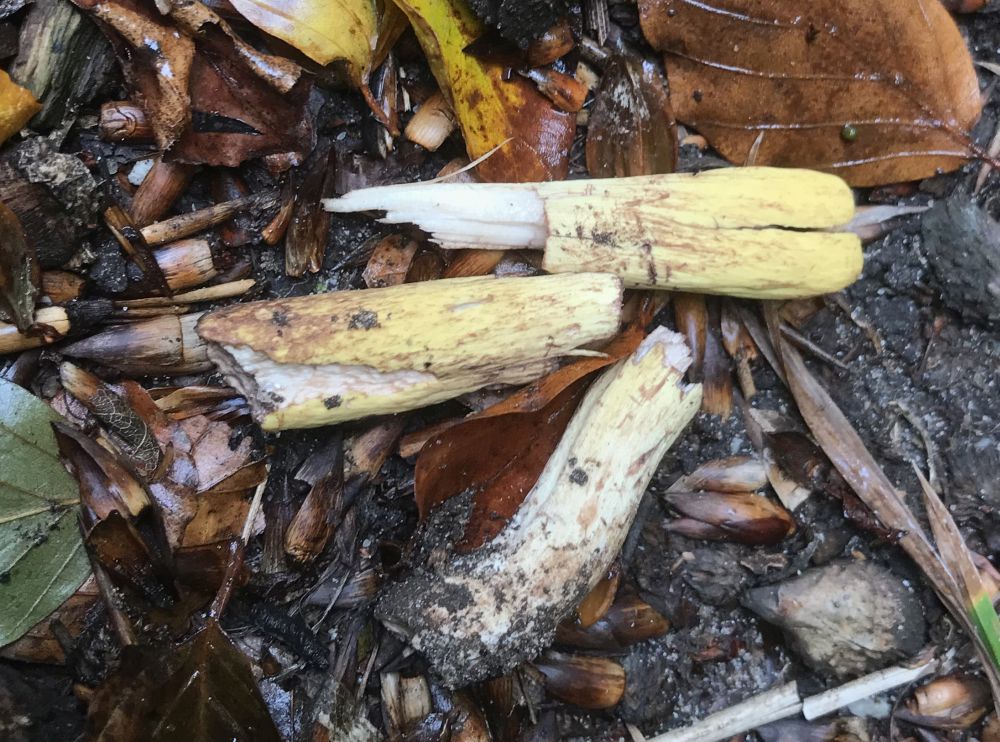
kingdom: Fungi
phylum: Basidiomycota
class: Agaricomycetes
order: Gomphales
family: Clavariadelphaceae
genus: Clavariadelphus
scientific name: Clavariadelphus pistillaris
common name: herkules-kæmpekølle
